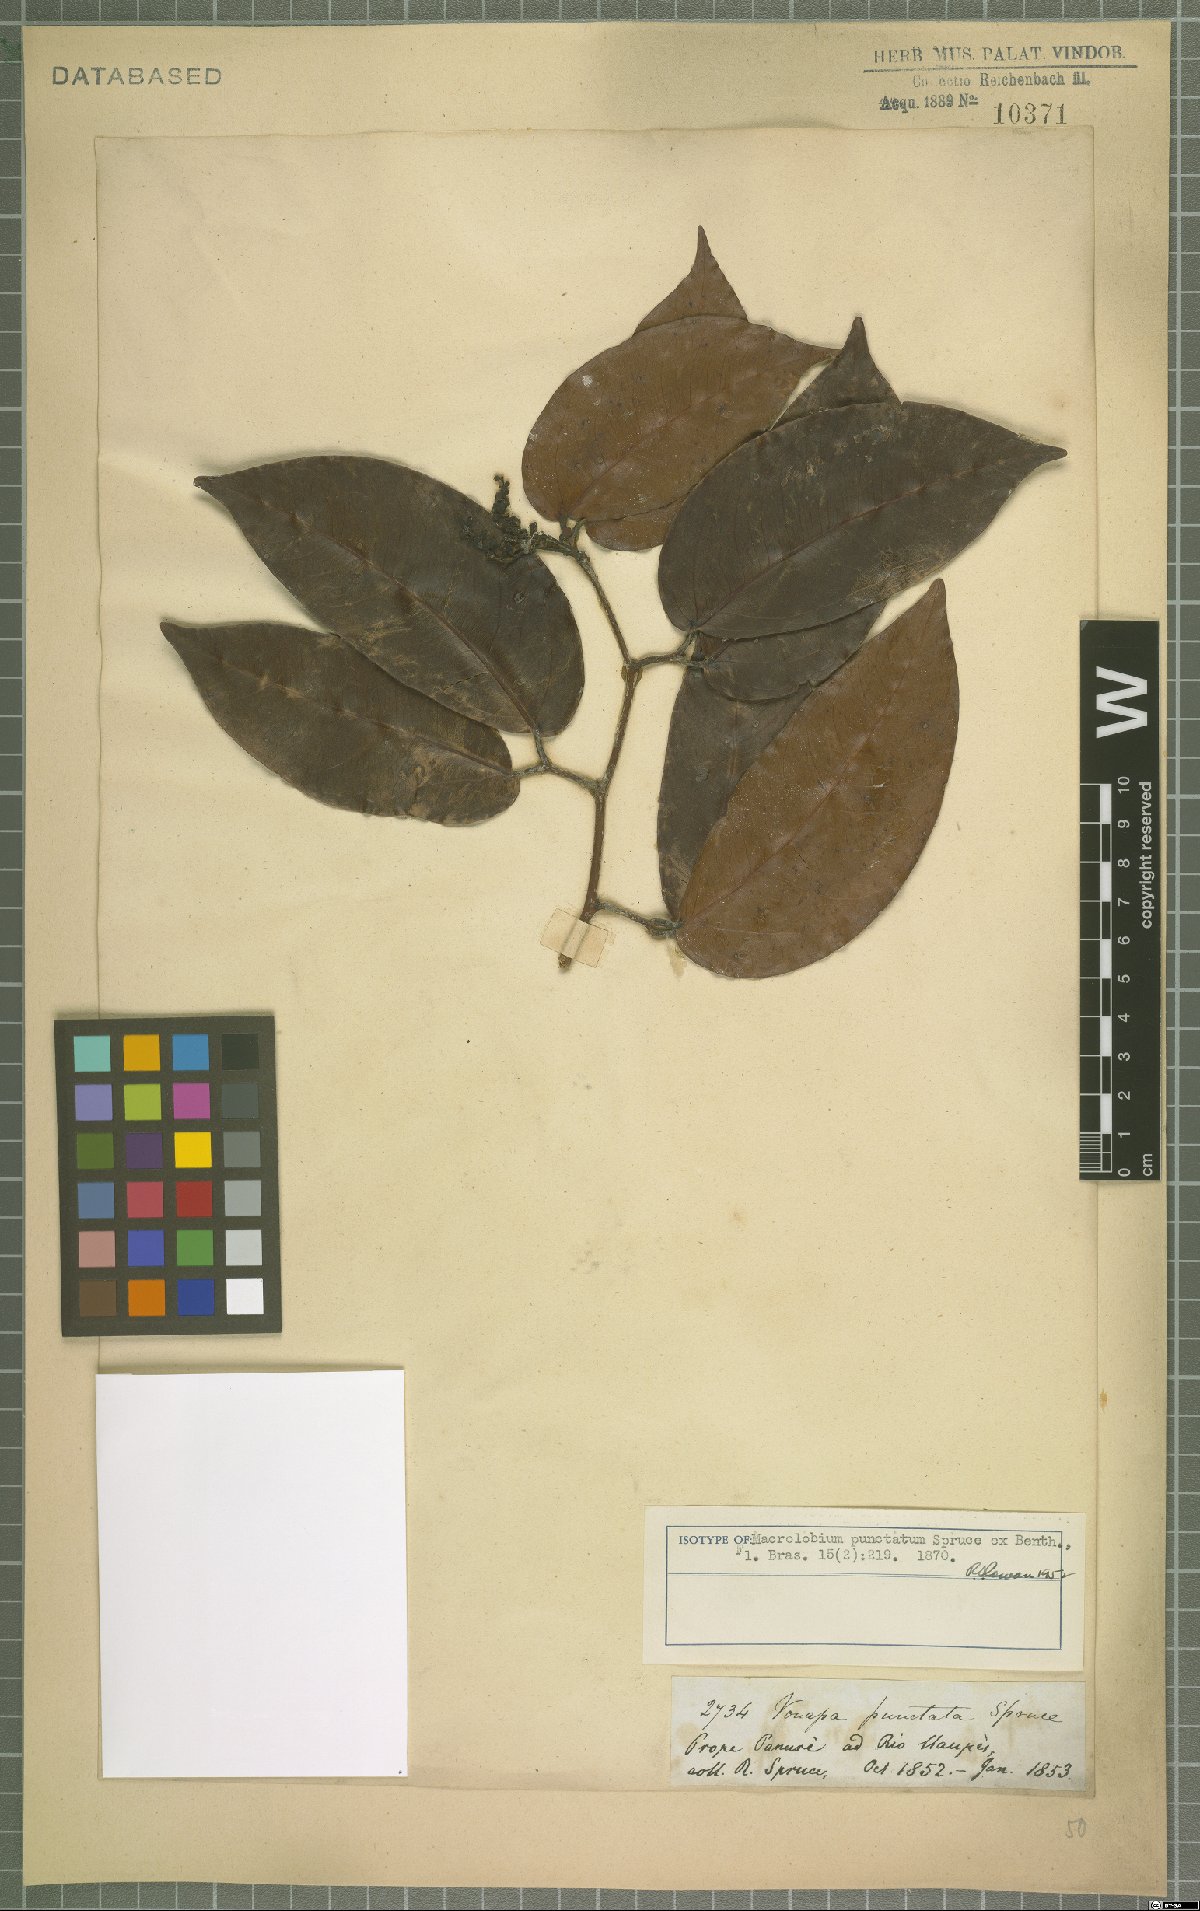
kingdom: Plantae
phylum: Tracheophyta
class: Magnoliopsida
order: Fabales
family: Fabaceae
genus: Macrolobium
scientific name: Macrolobium punctatum
